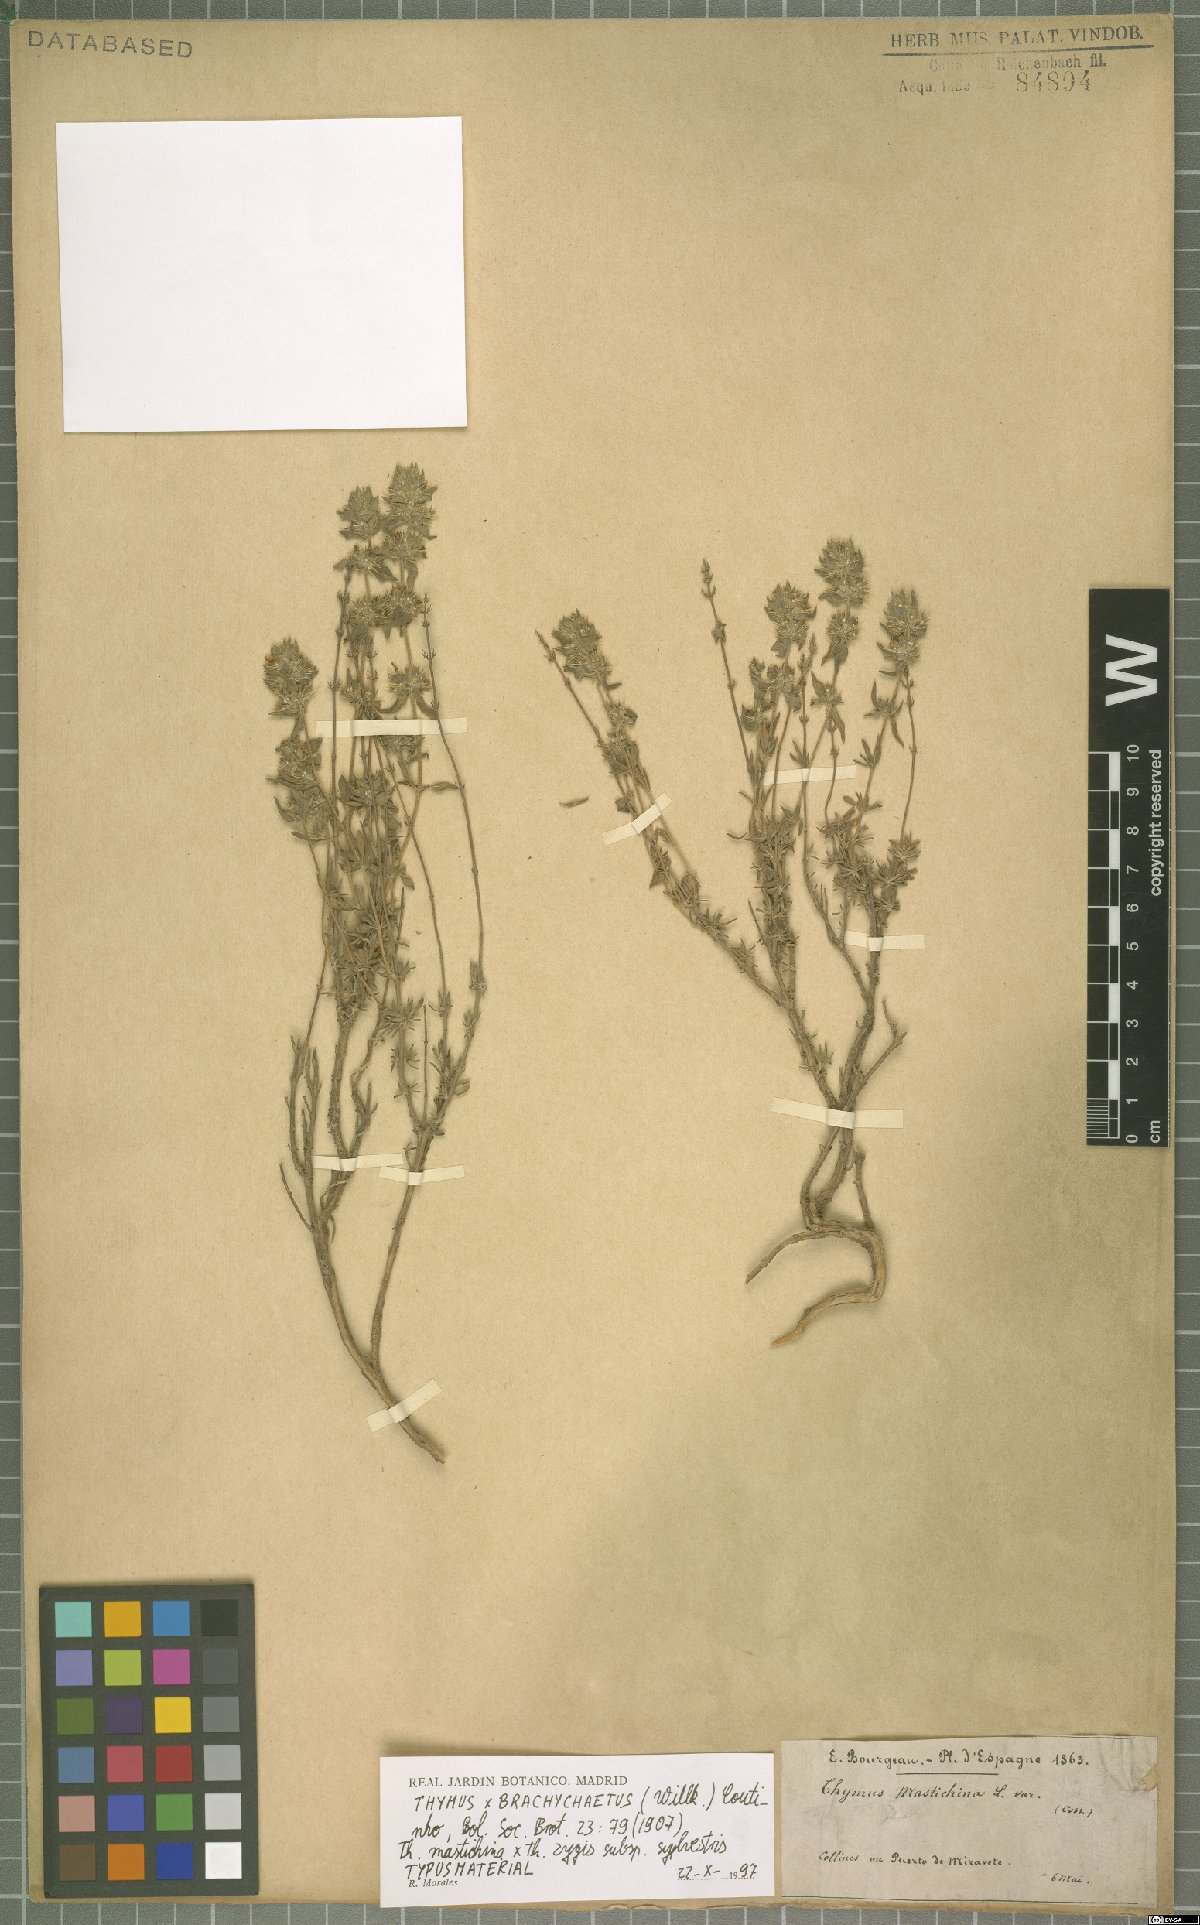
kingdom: Plantae
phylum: Tracheophyta
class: Magnoliopsida
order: Lamiales
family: Lamiaceae
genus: Thymus
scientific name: Thymus brachychaetus
